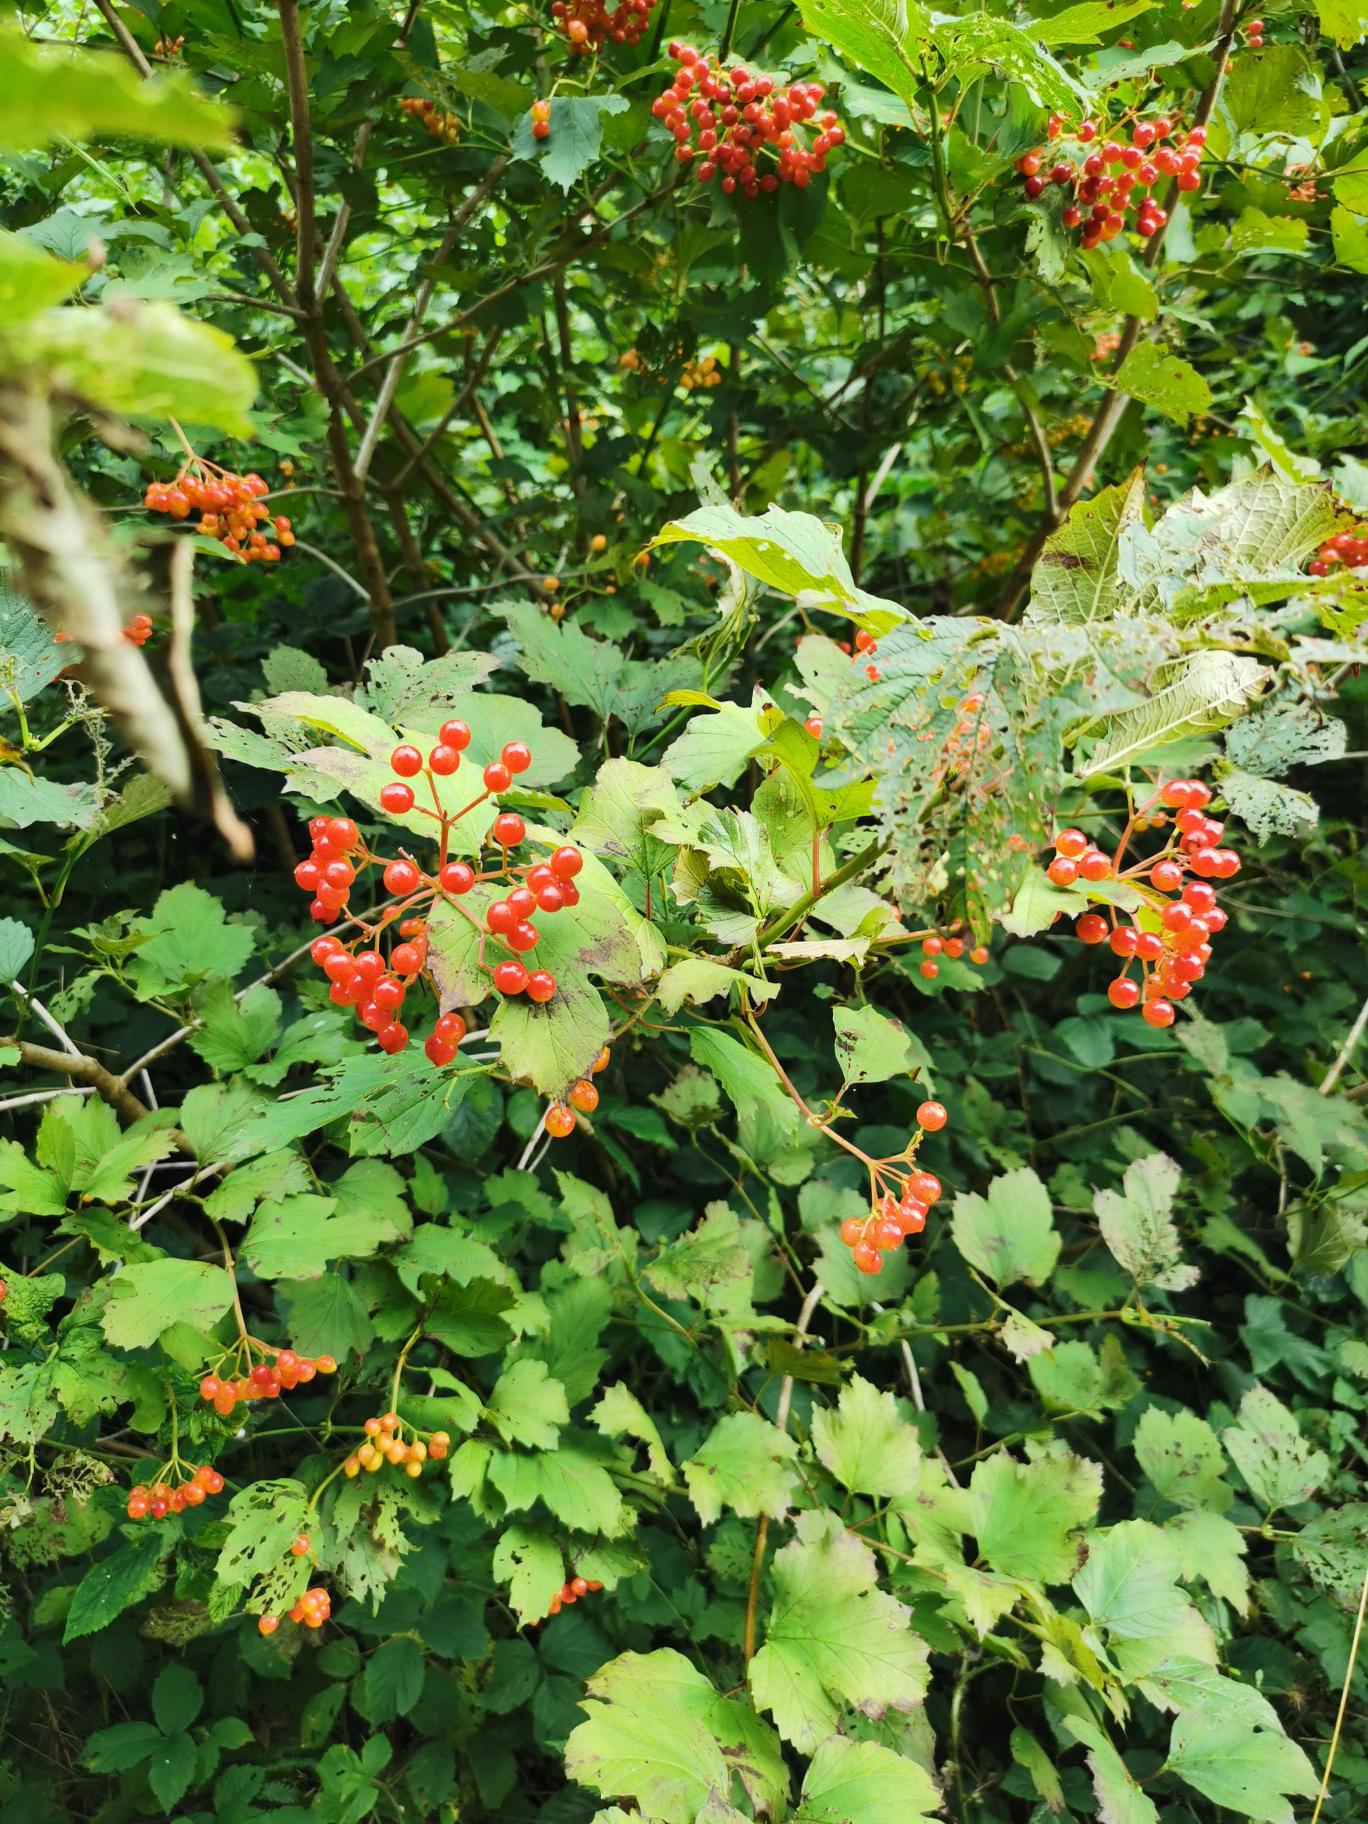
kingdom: Plantae
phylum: Tracheophyta
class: Magnoliopsida
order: Dipsacales
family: Viburnaceae
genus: Viburnum
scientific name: Viburnum opulus
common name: Kvalkved
